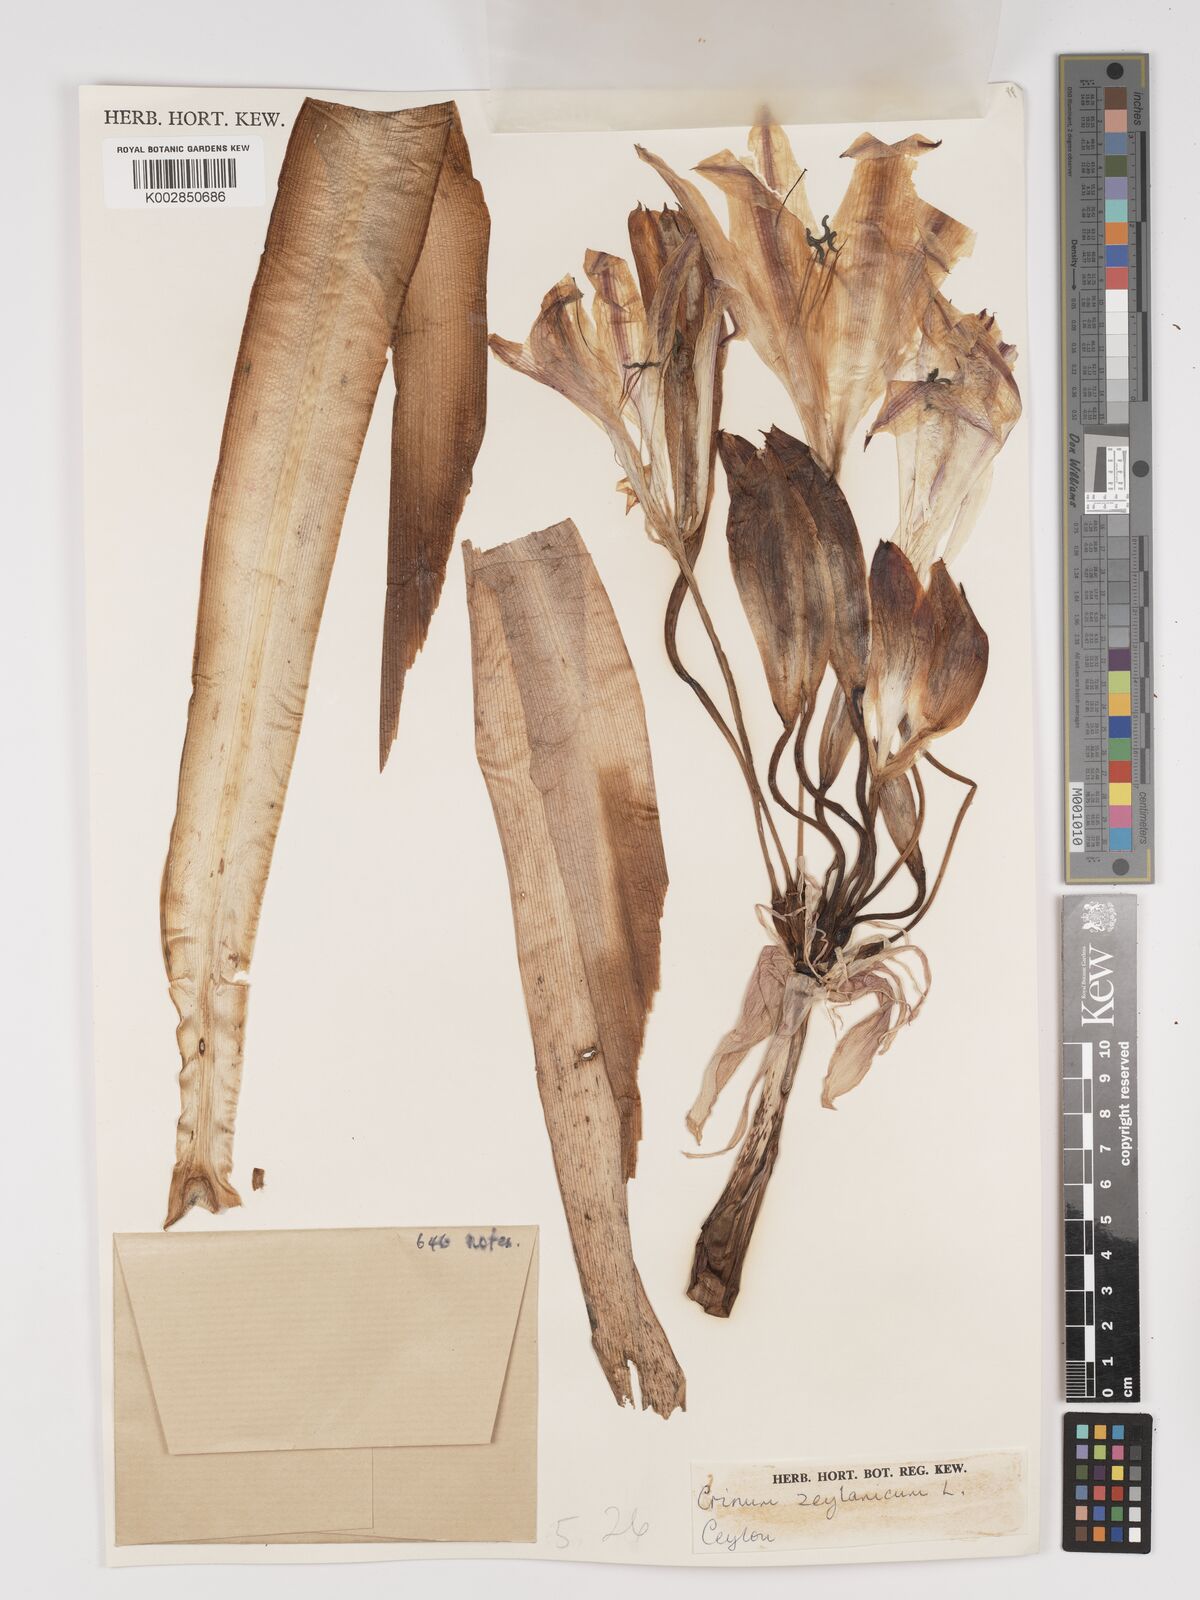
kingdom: Plantae
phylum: Tracheophyta
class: Liliopsida
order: Asparagales
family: Amaryllidaceae
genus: Crinum
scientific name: Crinum zeylanicum
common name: Ceylon swamplily
